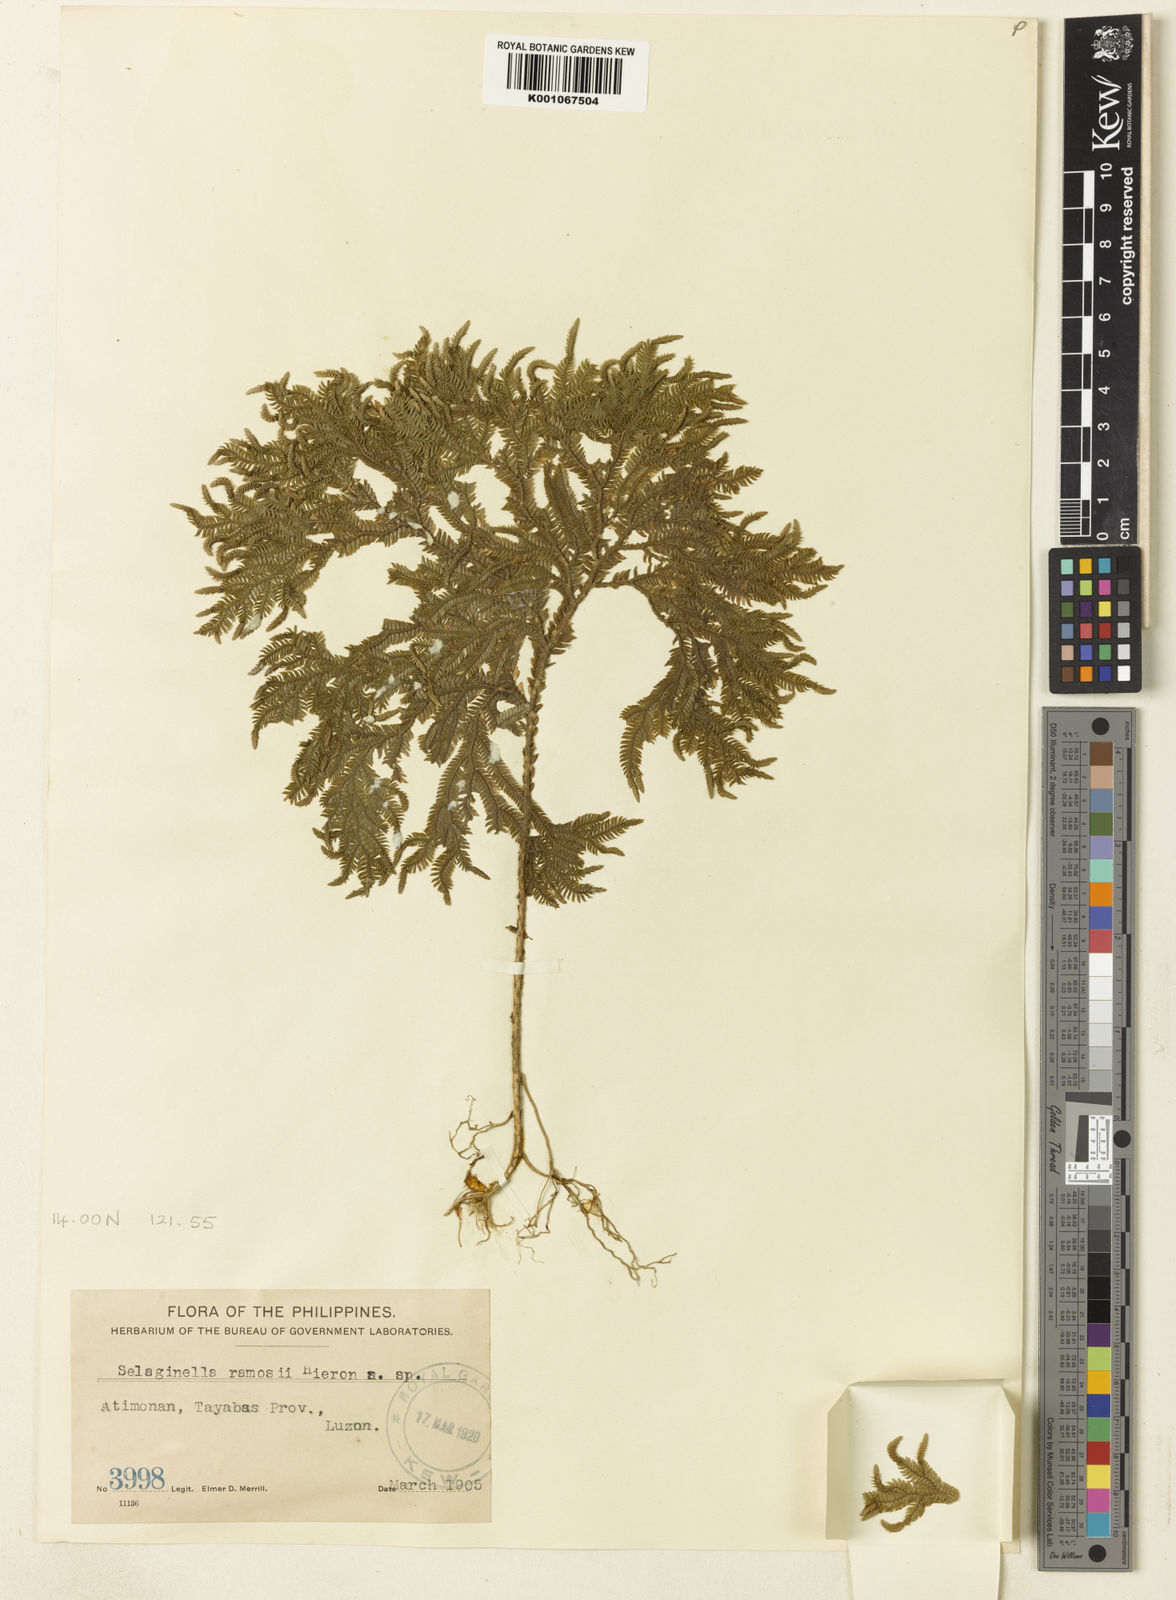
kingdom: Plantae
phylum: Tracheophyta
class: Lycopodiopsida
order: Selaginellales
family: Selaginellaceae
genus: Selaginella
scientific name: Selaginella ramosii
